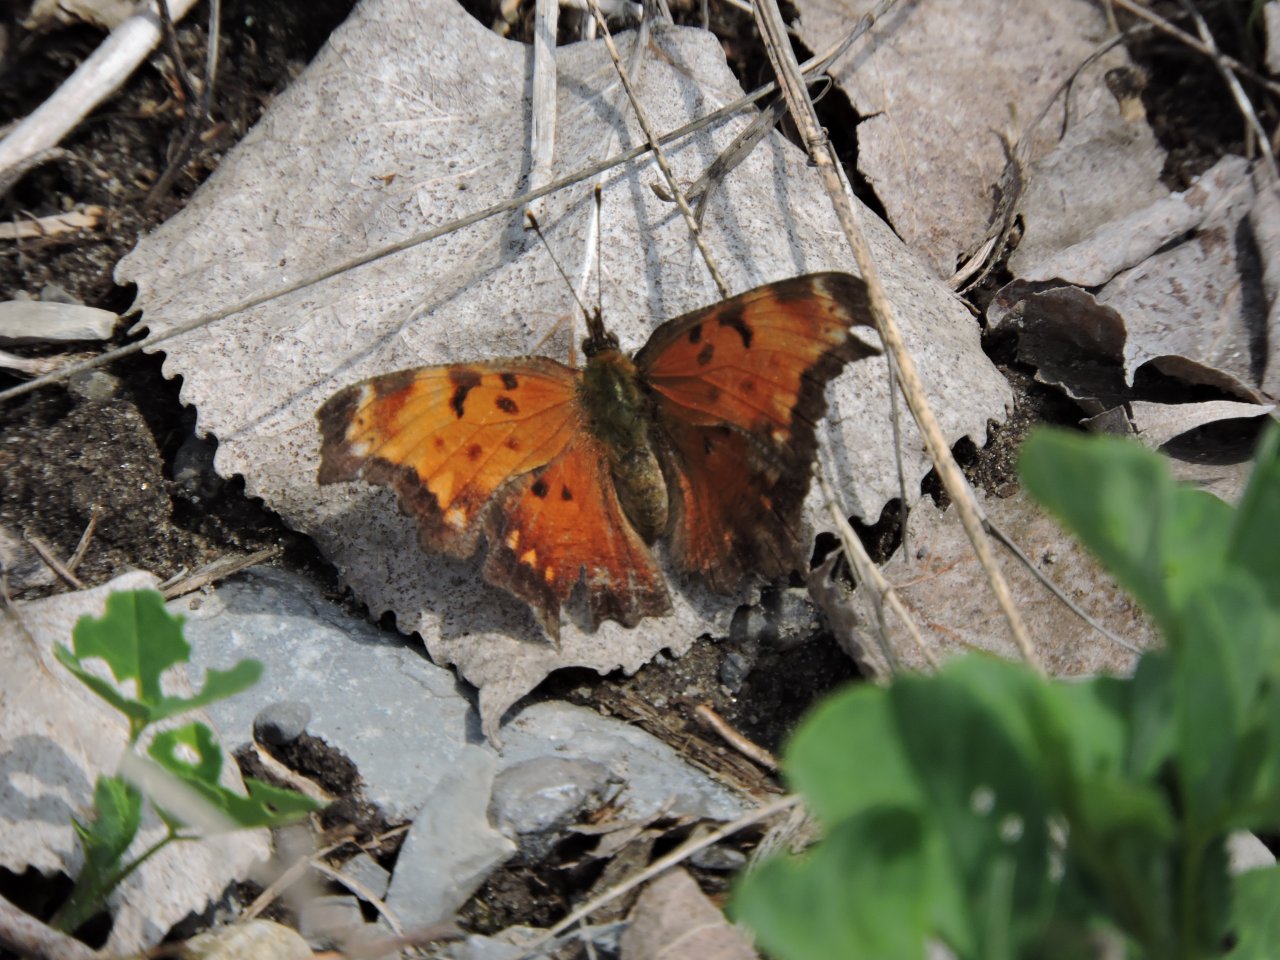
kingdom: Animalia
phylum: Arthropoda
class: Insecta
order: Lepidoptera
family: Nymphalidae
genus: Polygonia
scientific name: Polygonia progne
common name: Gray Comma
